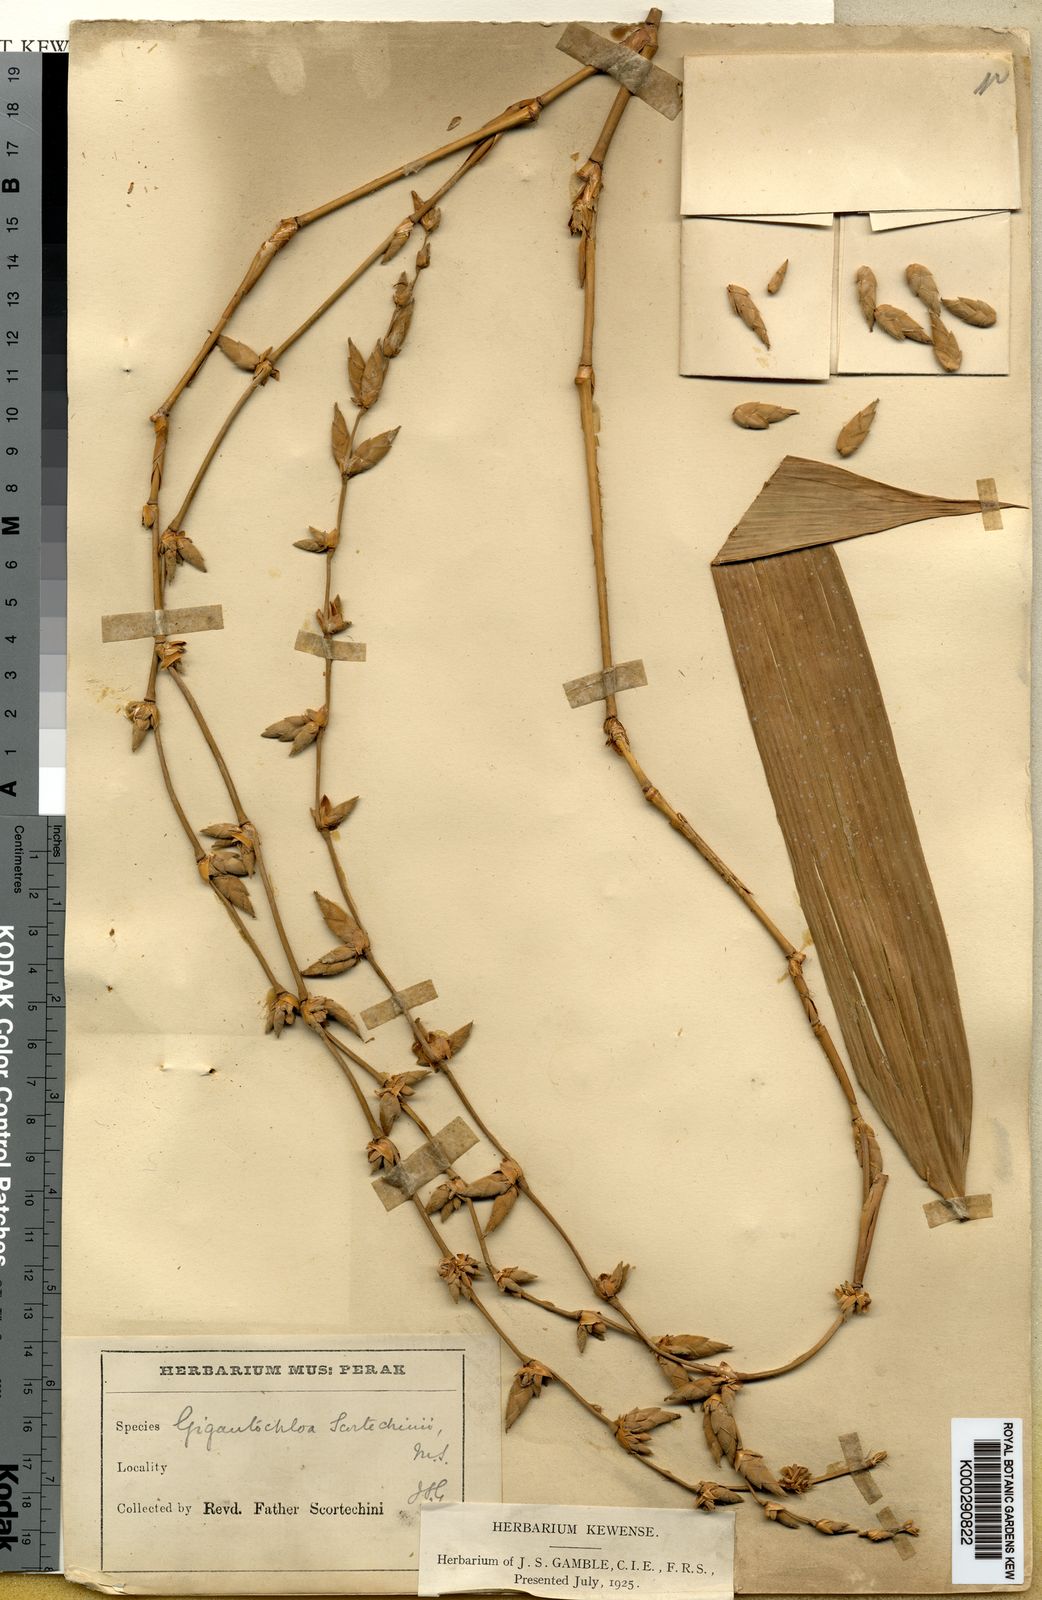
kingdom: Plantae
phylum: Tracheophyta
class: Liliopsida
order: Poales
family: Poaceae
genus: Gigantochloa
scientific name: Gigantochloa scortechinii
